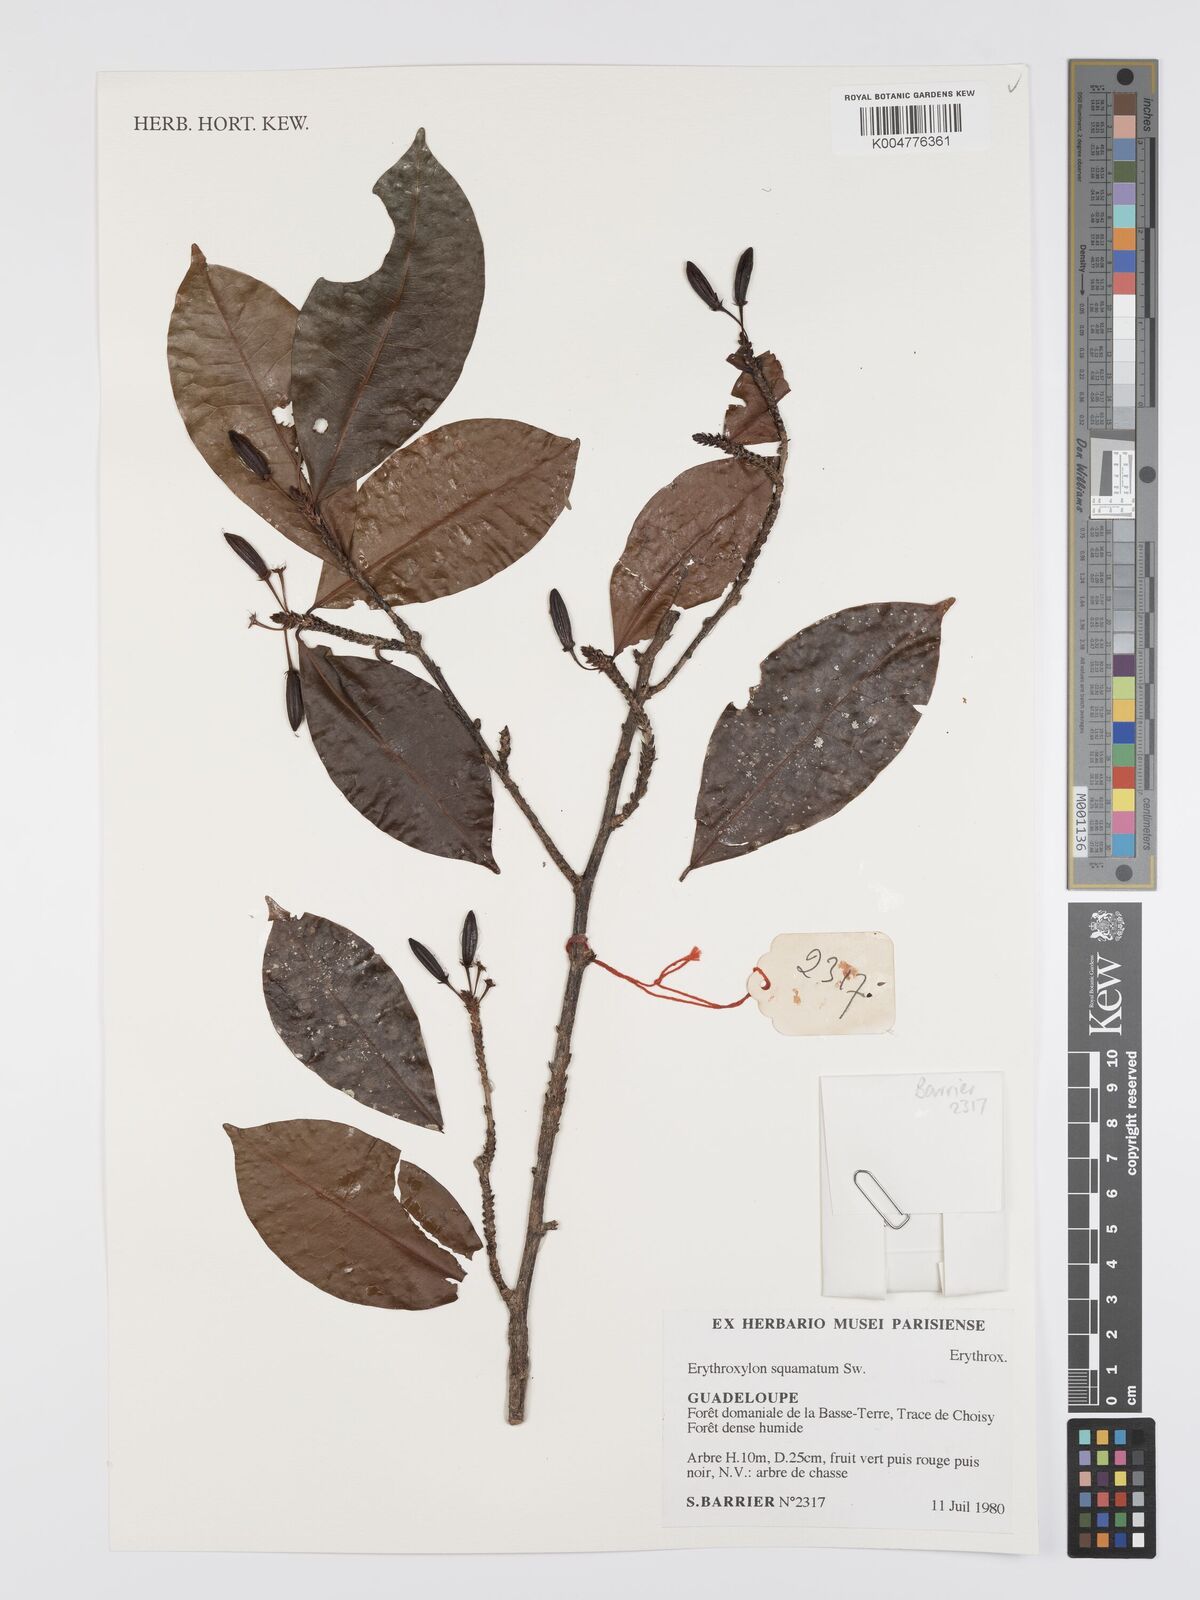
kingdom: Plantae
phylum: Tracheophyta
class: Magnoliopsida
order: Malpighiales
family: Erythroxylaceae
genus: Erythroxylum
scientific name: Erythroxylum squamatum
